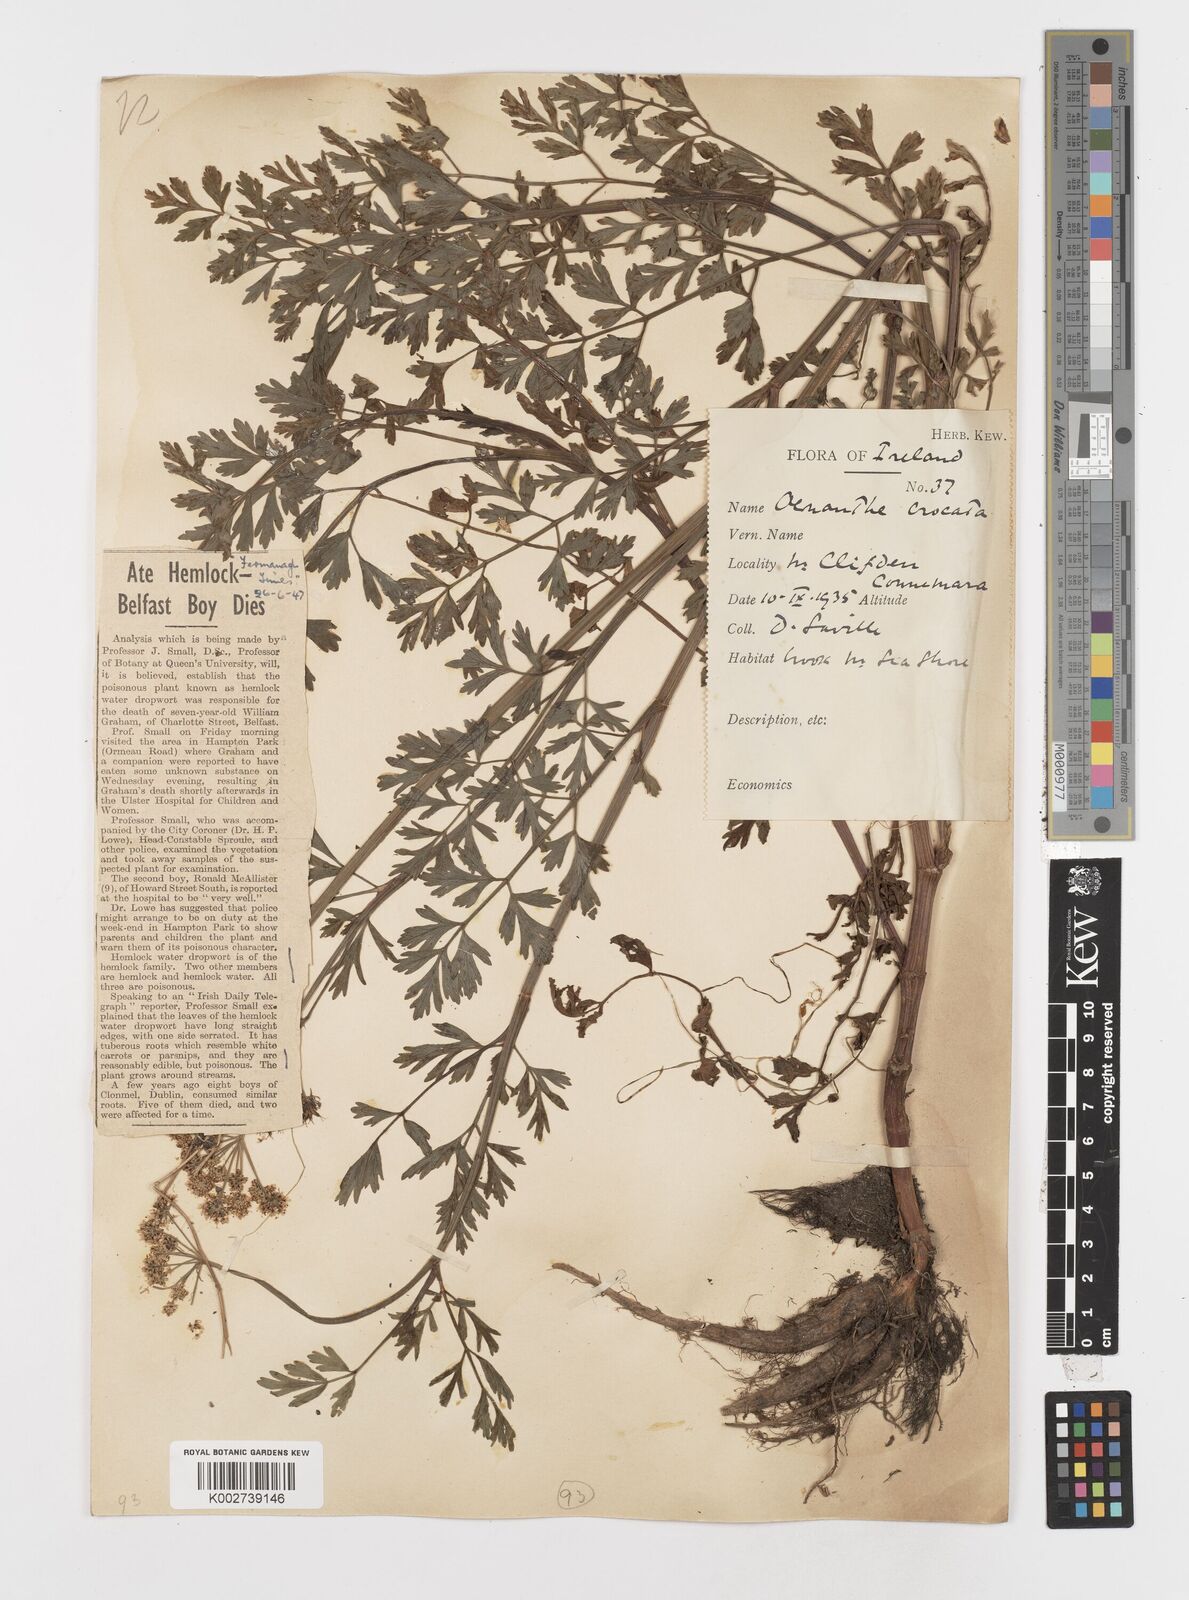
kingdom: Plantae
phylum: Tracheophyta
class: Magnoliopsida
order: Apiales
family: Apiaceae
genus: Oenanthe
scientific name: Oenanthe crocata
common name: Hemlock water-dropwort
